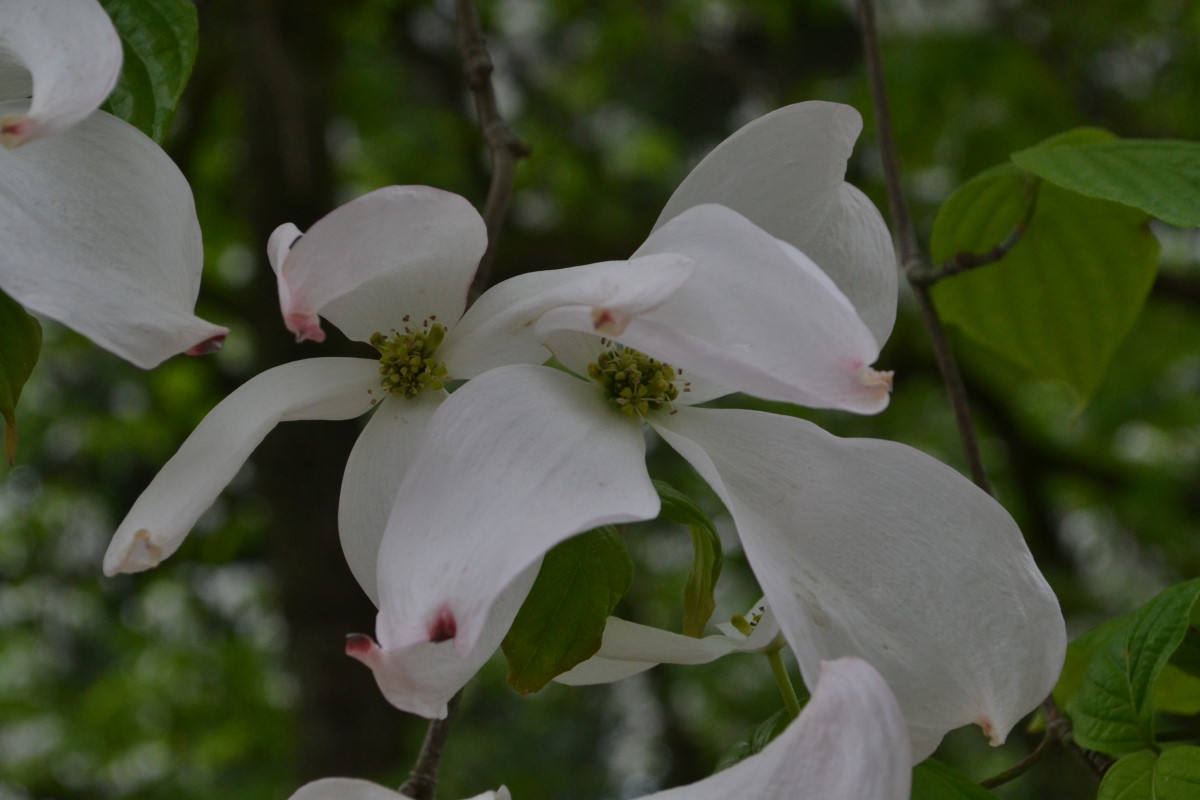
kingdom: Plantae
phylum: Tracheophyta
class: Magnoliopsida
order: Cornales
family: Cornaceae
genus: Cornus
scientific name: Cornus florida
